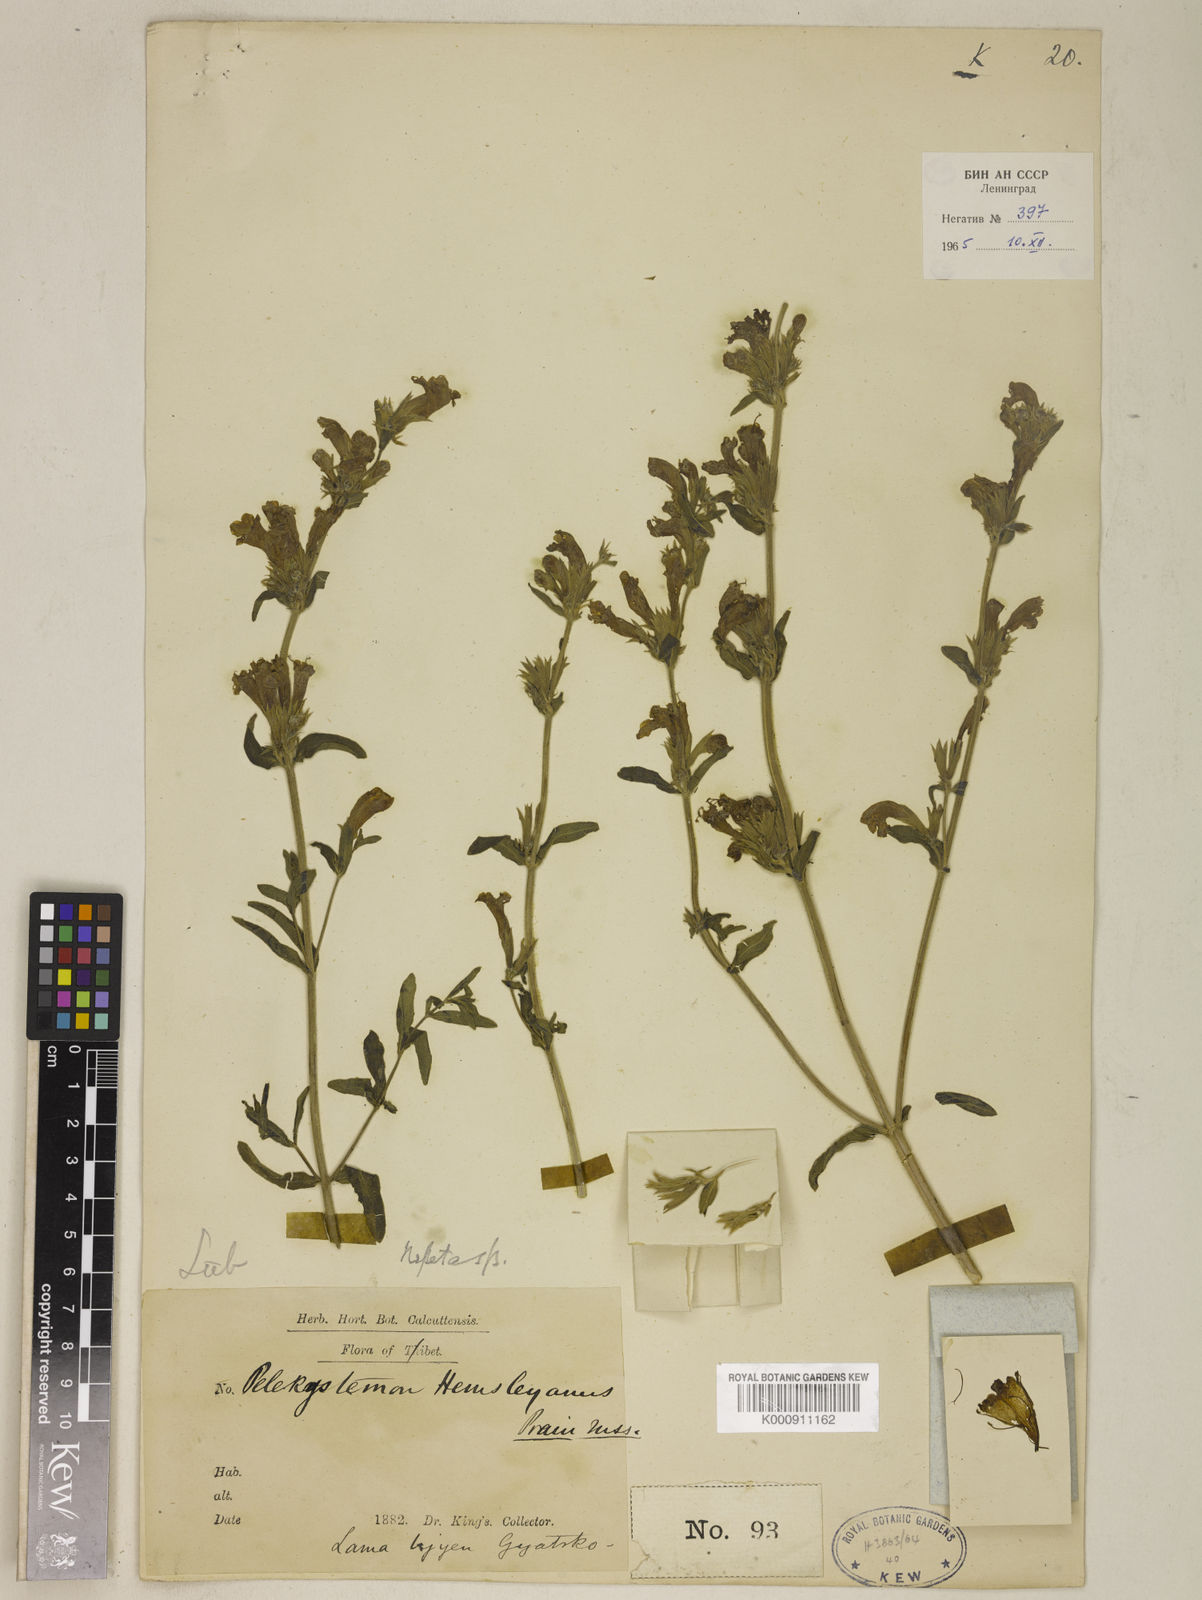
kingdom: Plantae
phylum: Tracheophyta
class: Magnoliopsida
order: Lamiales
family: Lamiaceae
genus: Nepeta
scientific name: Nepeta hemsleyana
